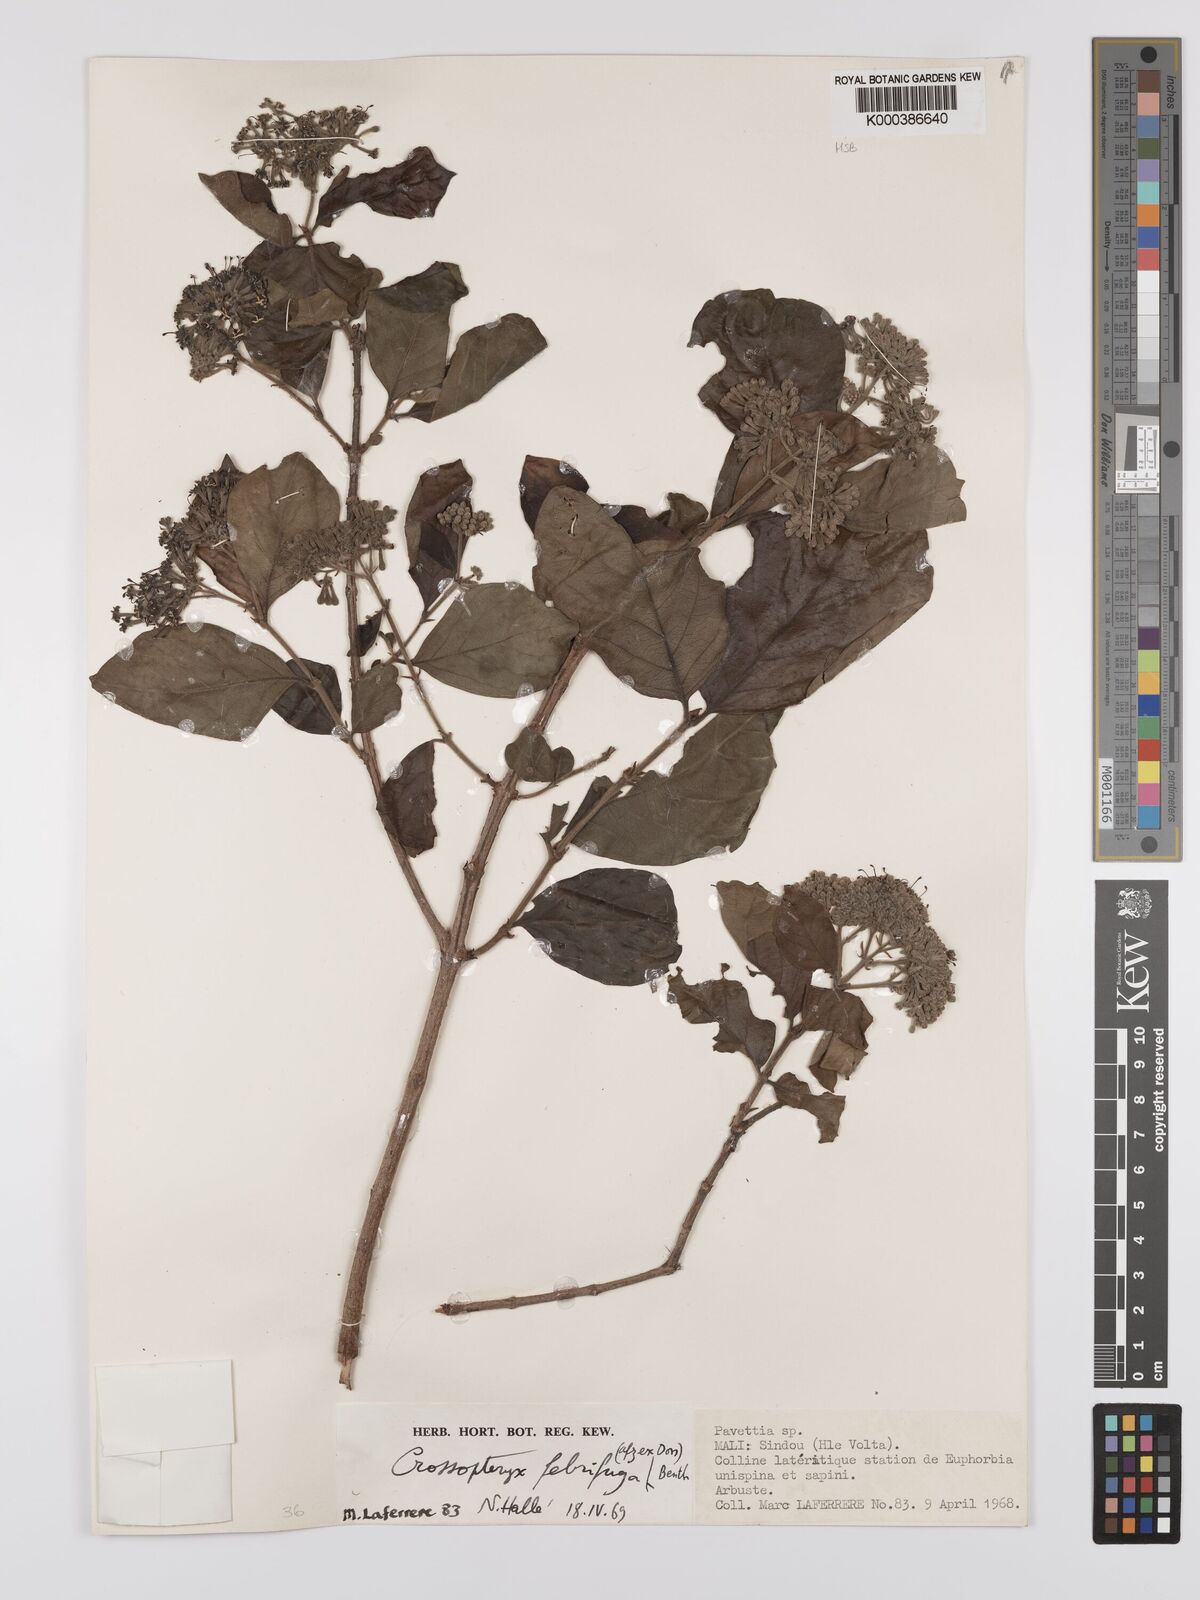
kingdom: Plantae
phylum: Tracheophyta
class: Magnoliopsida
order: Gentianales
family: Rubiaceae
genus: Crossopteryx
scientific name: Crossopteryx febrifuga
